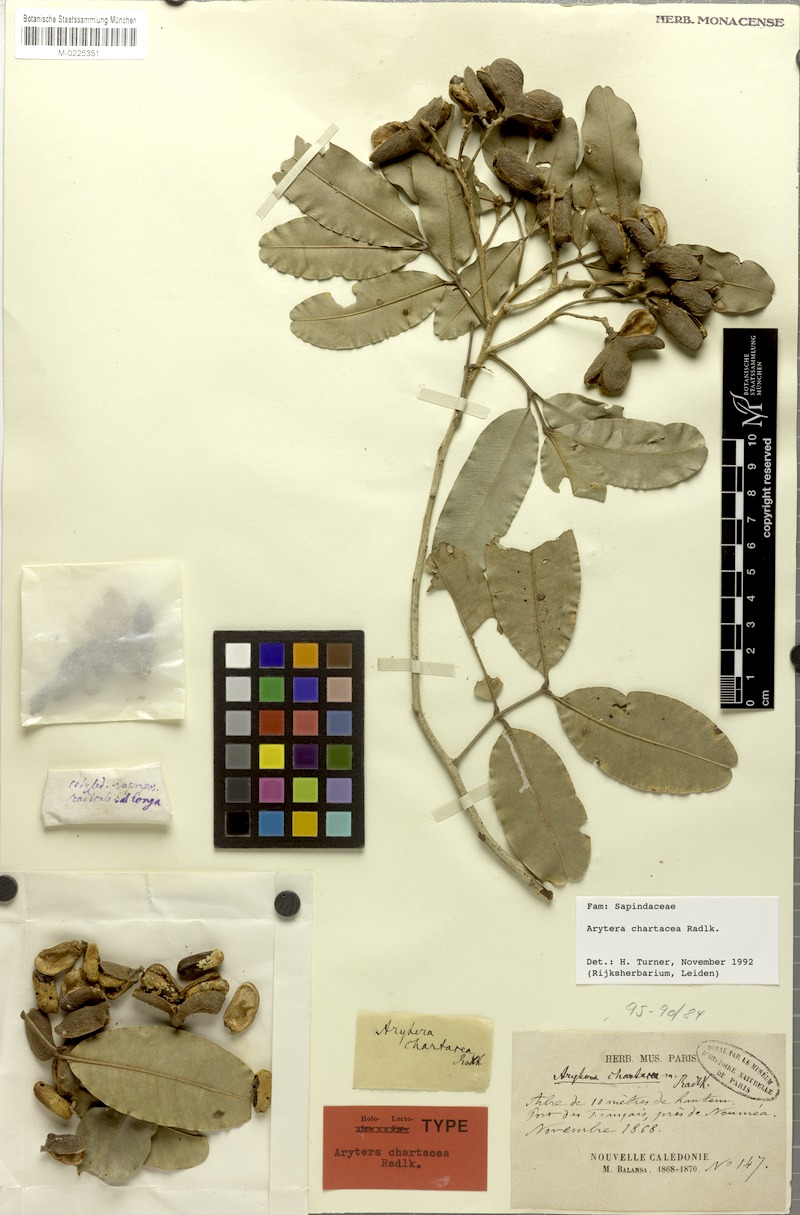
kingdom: Plantae
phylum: Tracheophyta
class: Magnoliopsida
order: Sapindales
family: Sapindaceae
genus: Neoarytera
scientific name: Neoarytera chartacea
